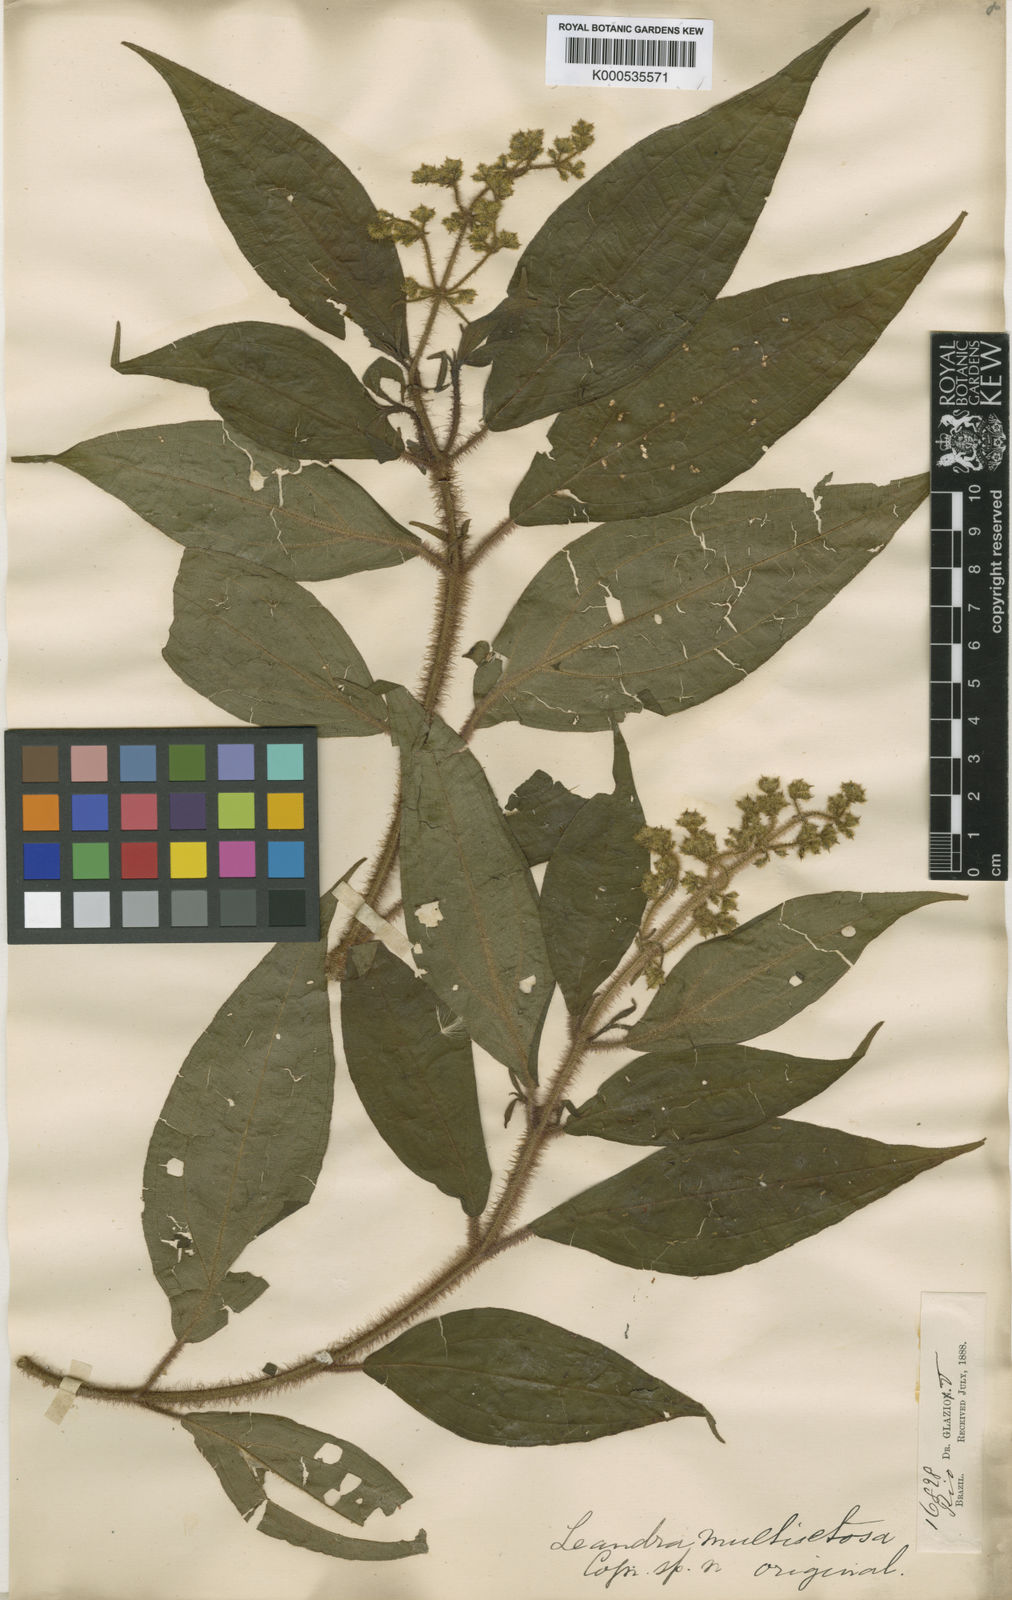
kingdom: Plantae
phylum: Tracheophyta
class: Magnoliopsida
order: Myrtales
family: Melastomataceae
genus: Miconia
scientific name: Miconia multisetosa
